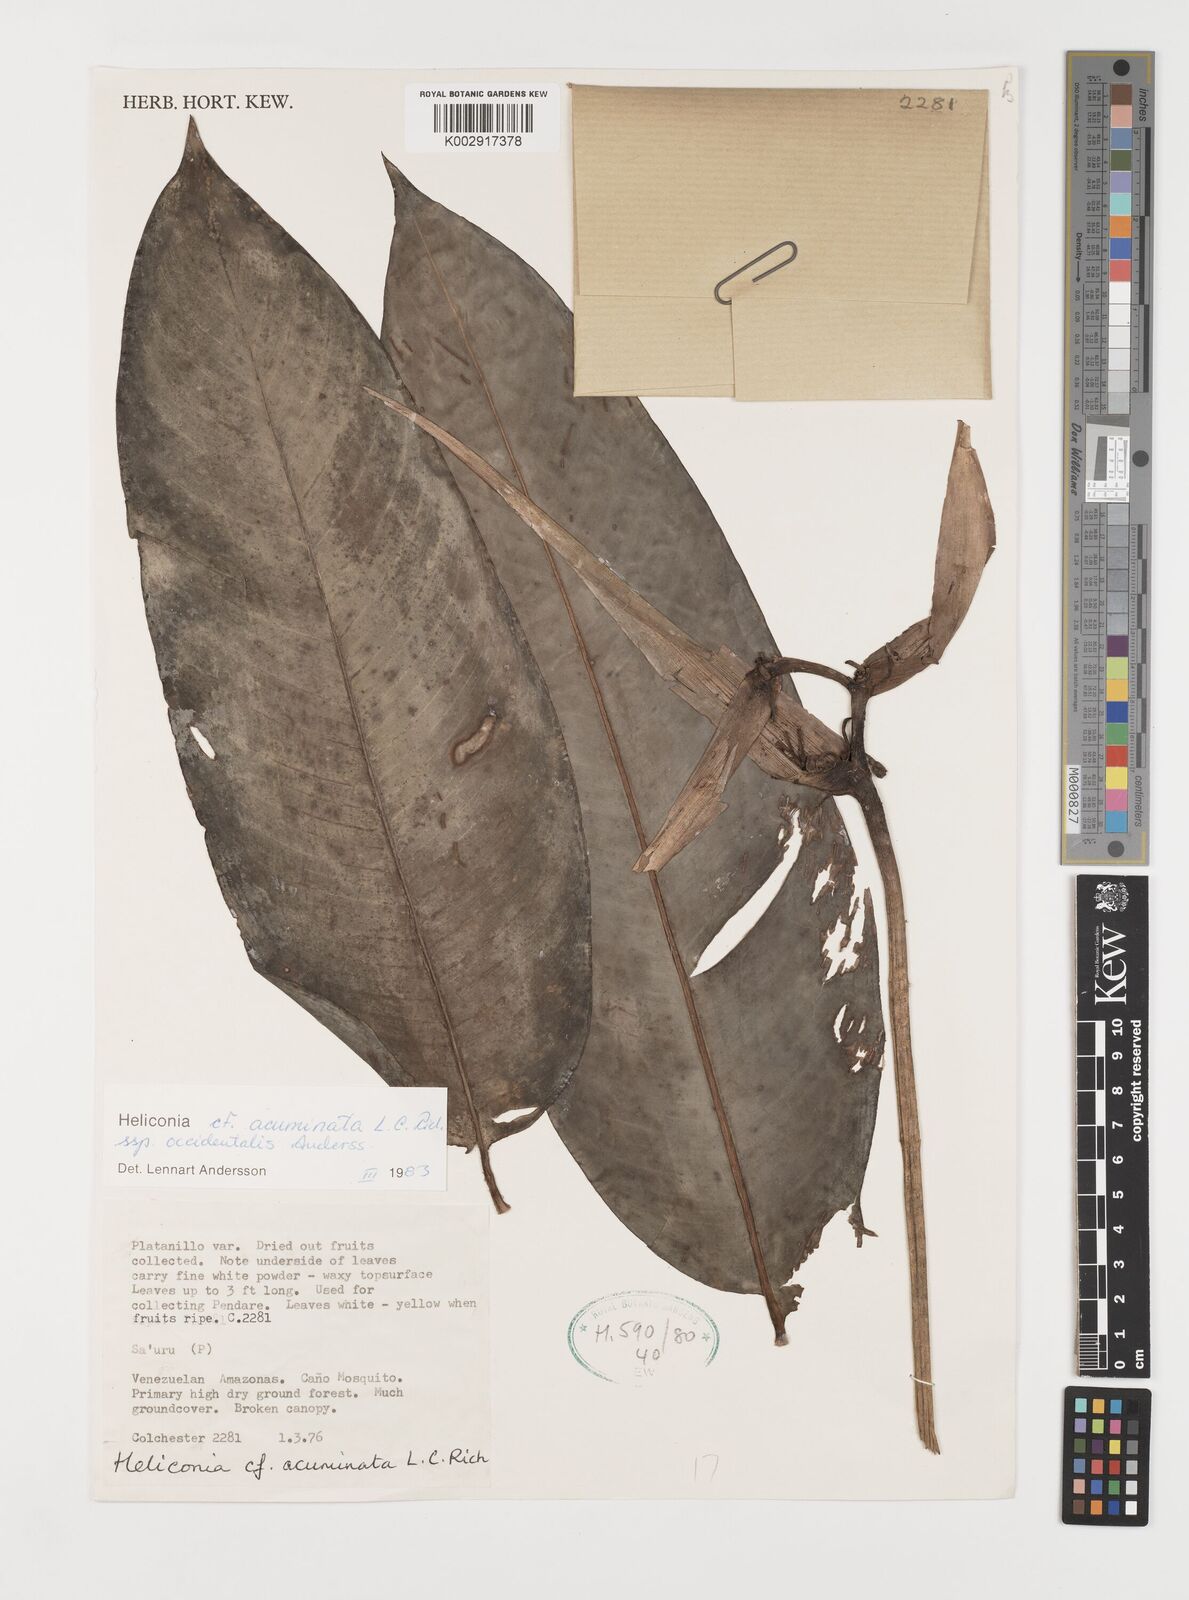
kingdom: Plantae
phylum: Tracheophyta
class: Liliopsida
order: Zingiberales
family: Heliconiaceae
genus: Heliconia
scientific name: Heliconia acuminata
